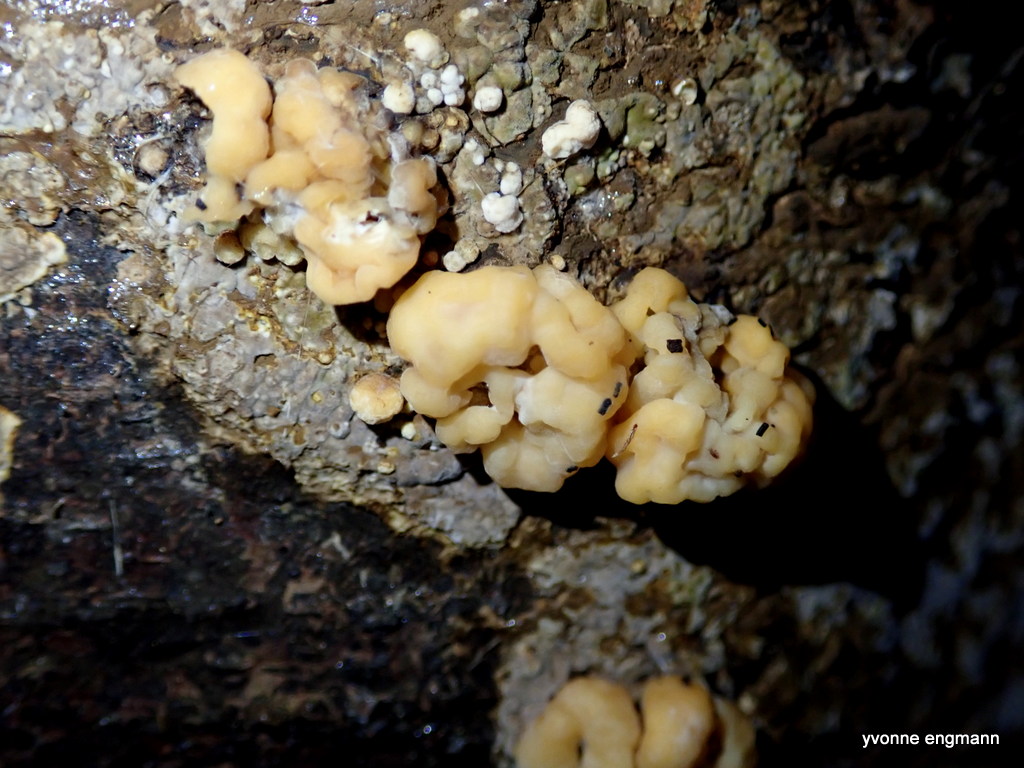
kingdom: Fungi
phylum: Ascomycota
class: Sordariomycetes
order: Xylariales
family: Hypoxylaceae
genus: Nodulisporium
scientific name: Nodulisporium cecidiogenes
